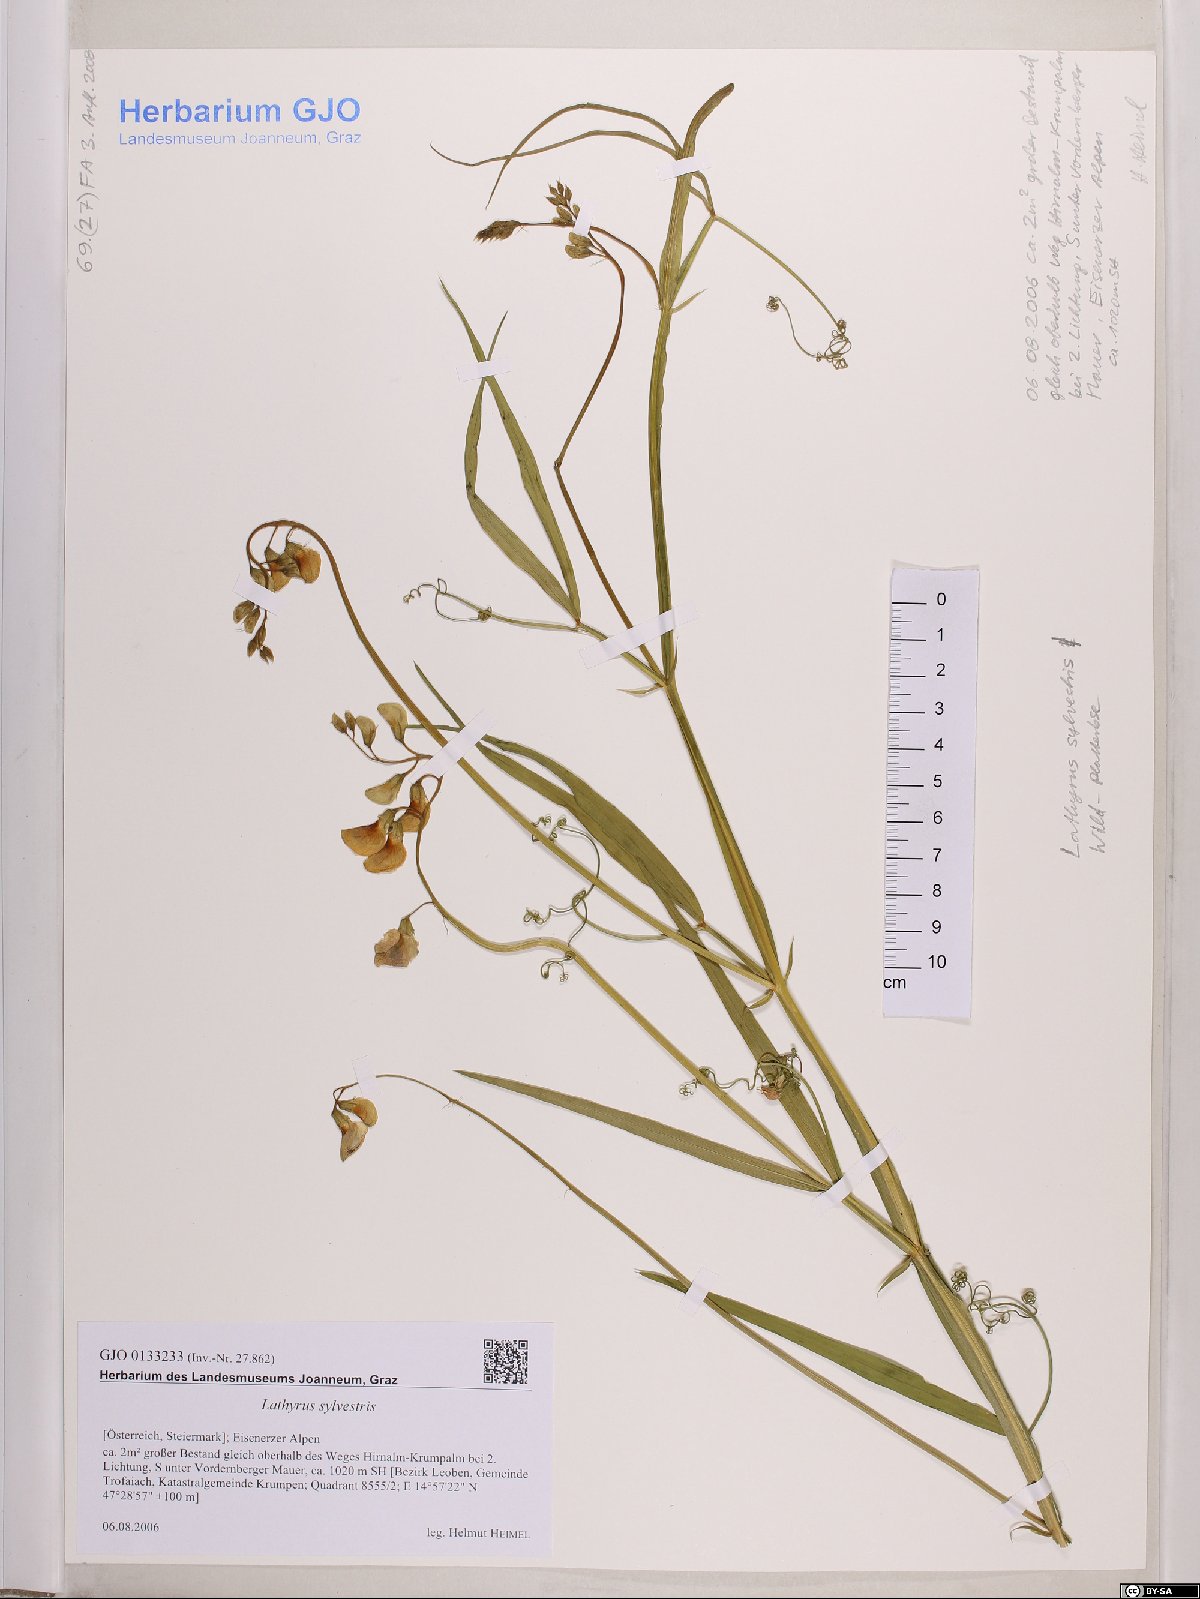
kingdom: Plantae
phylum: Tracheophyta
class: Magnoliopsida
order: Fabales
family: Fabaceae
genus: Lathyrus
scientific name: Lathyrus sylvestris
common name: Flat pea
